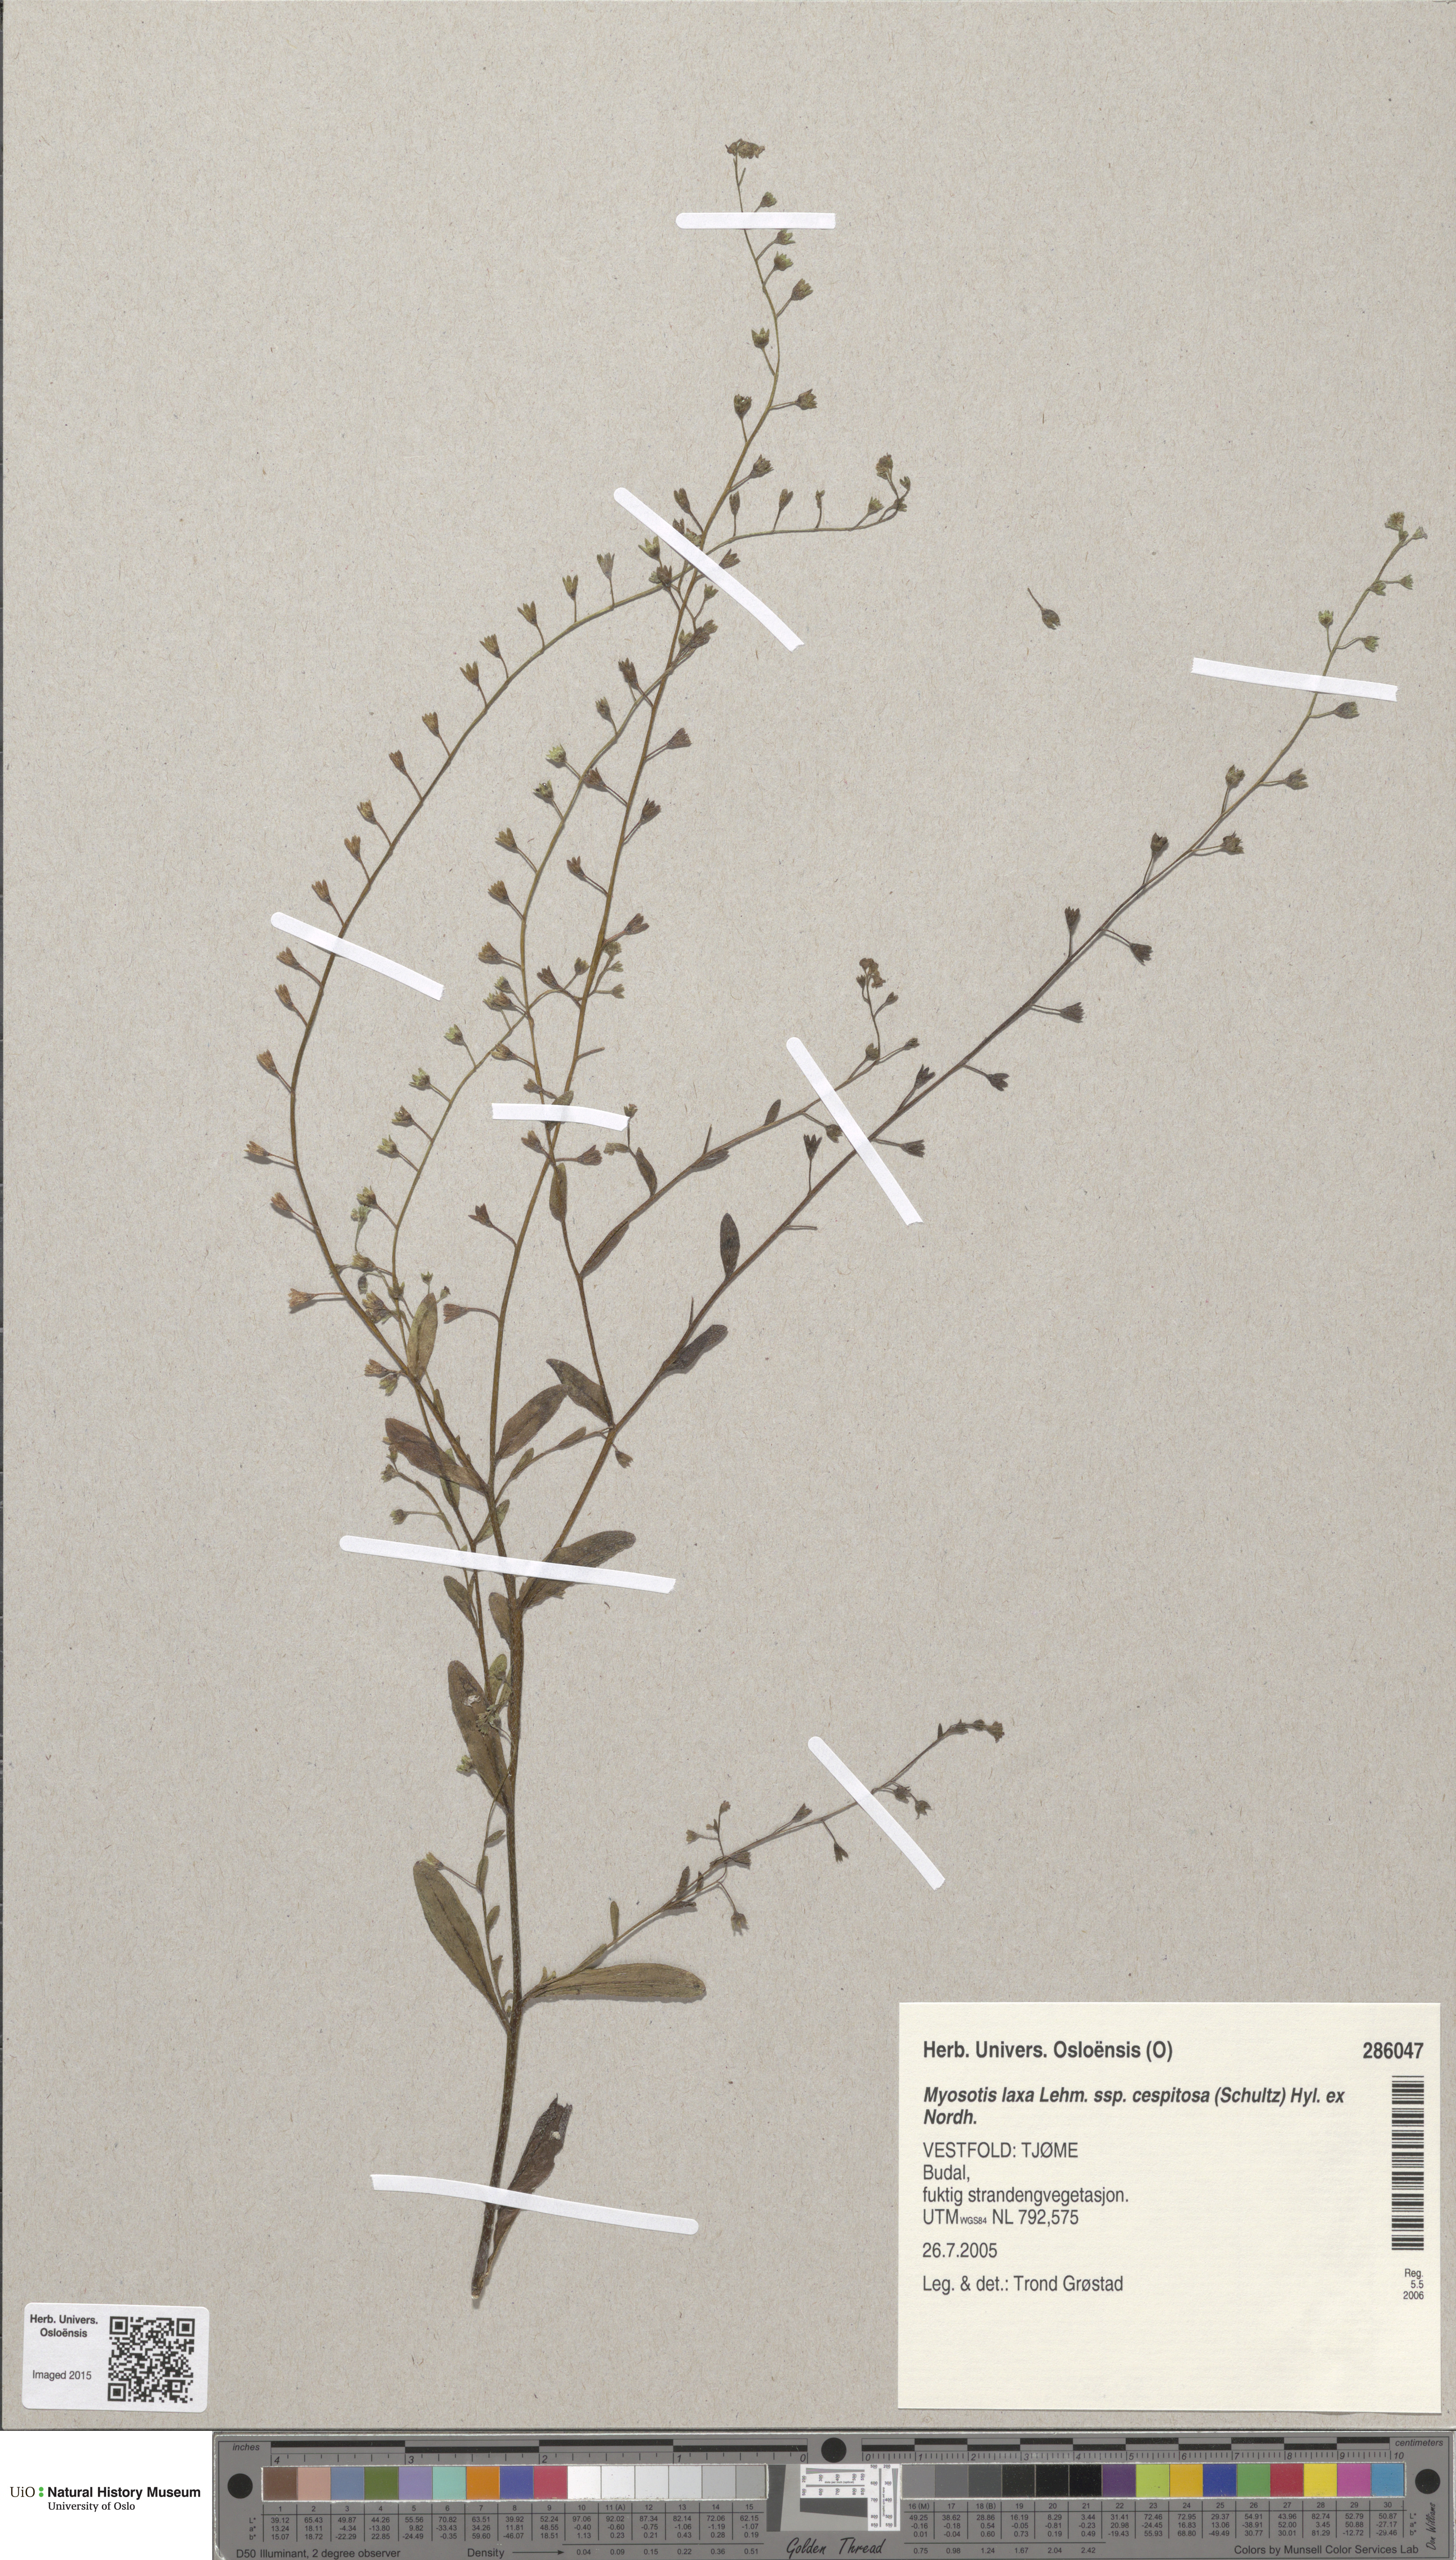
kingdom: Plantae
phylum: Tracheophyta
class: Magnoliopsida
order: Boraginales
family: Boraginaceae
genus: Myosotis
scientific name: Myosotis laxa
